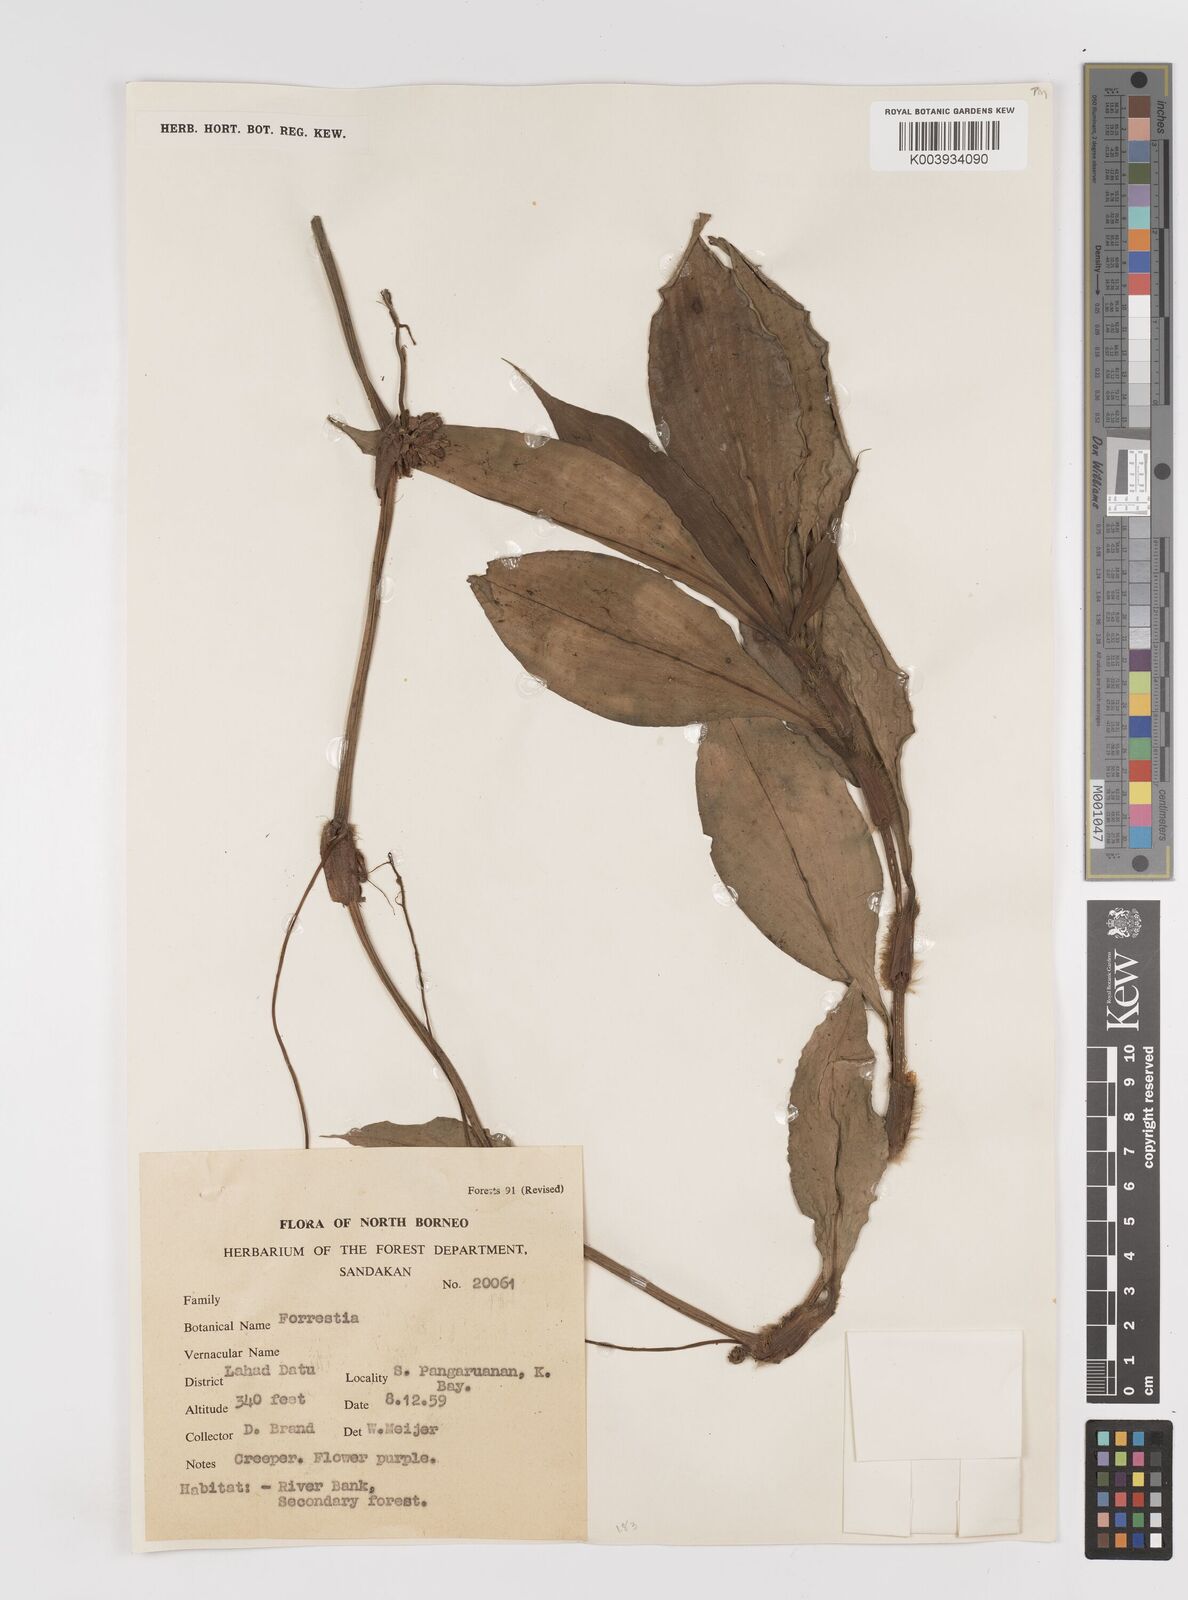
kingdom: Plantae
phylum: Tracheophyta
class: Liliopsida
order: Commelinales
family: Commelinaceae
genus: Amischotolype
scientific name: Amischotolype
